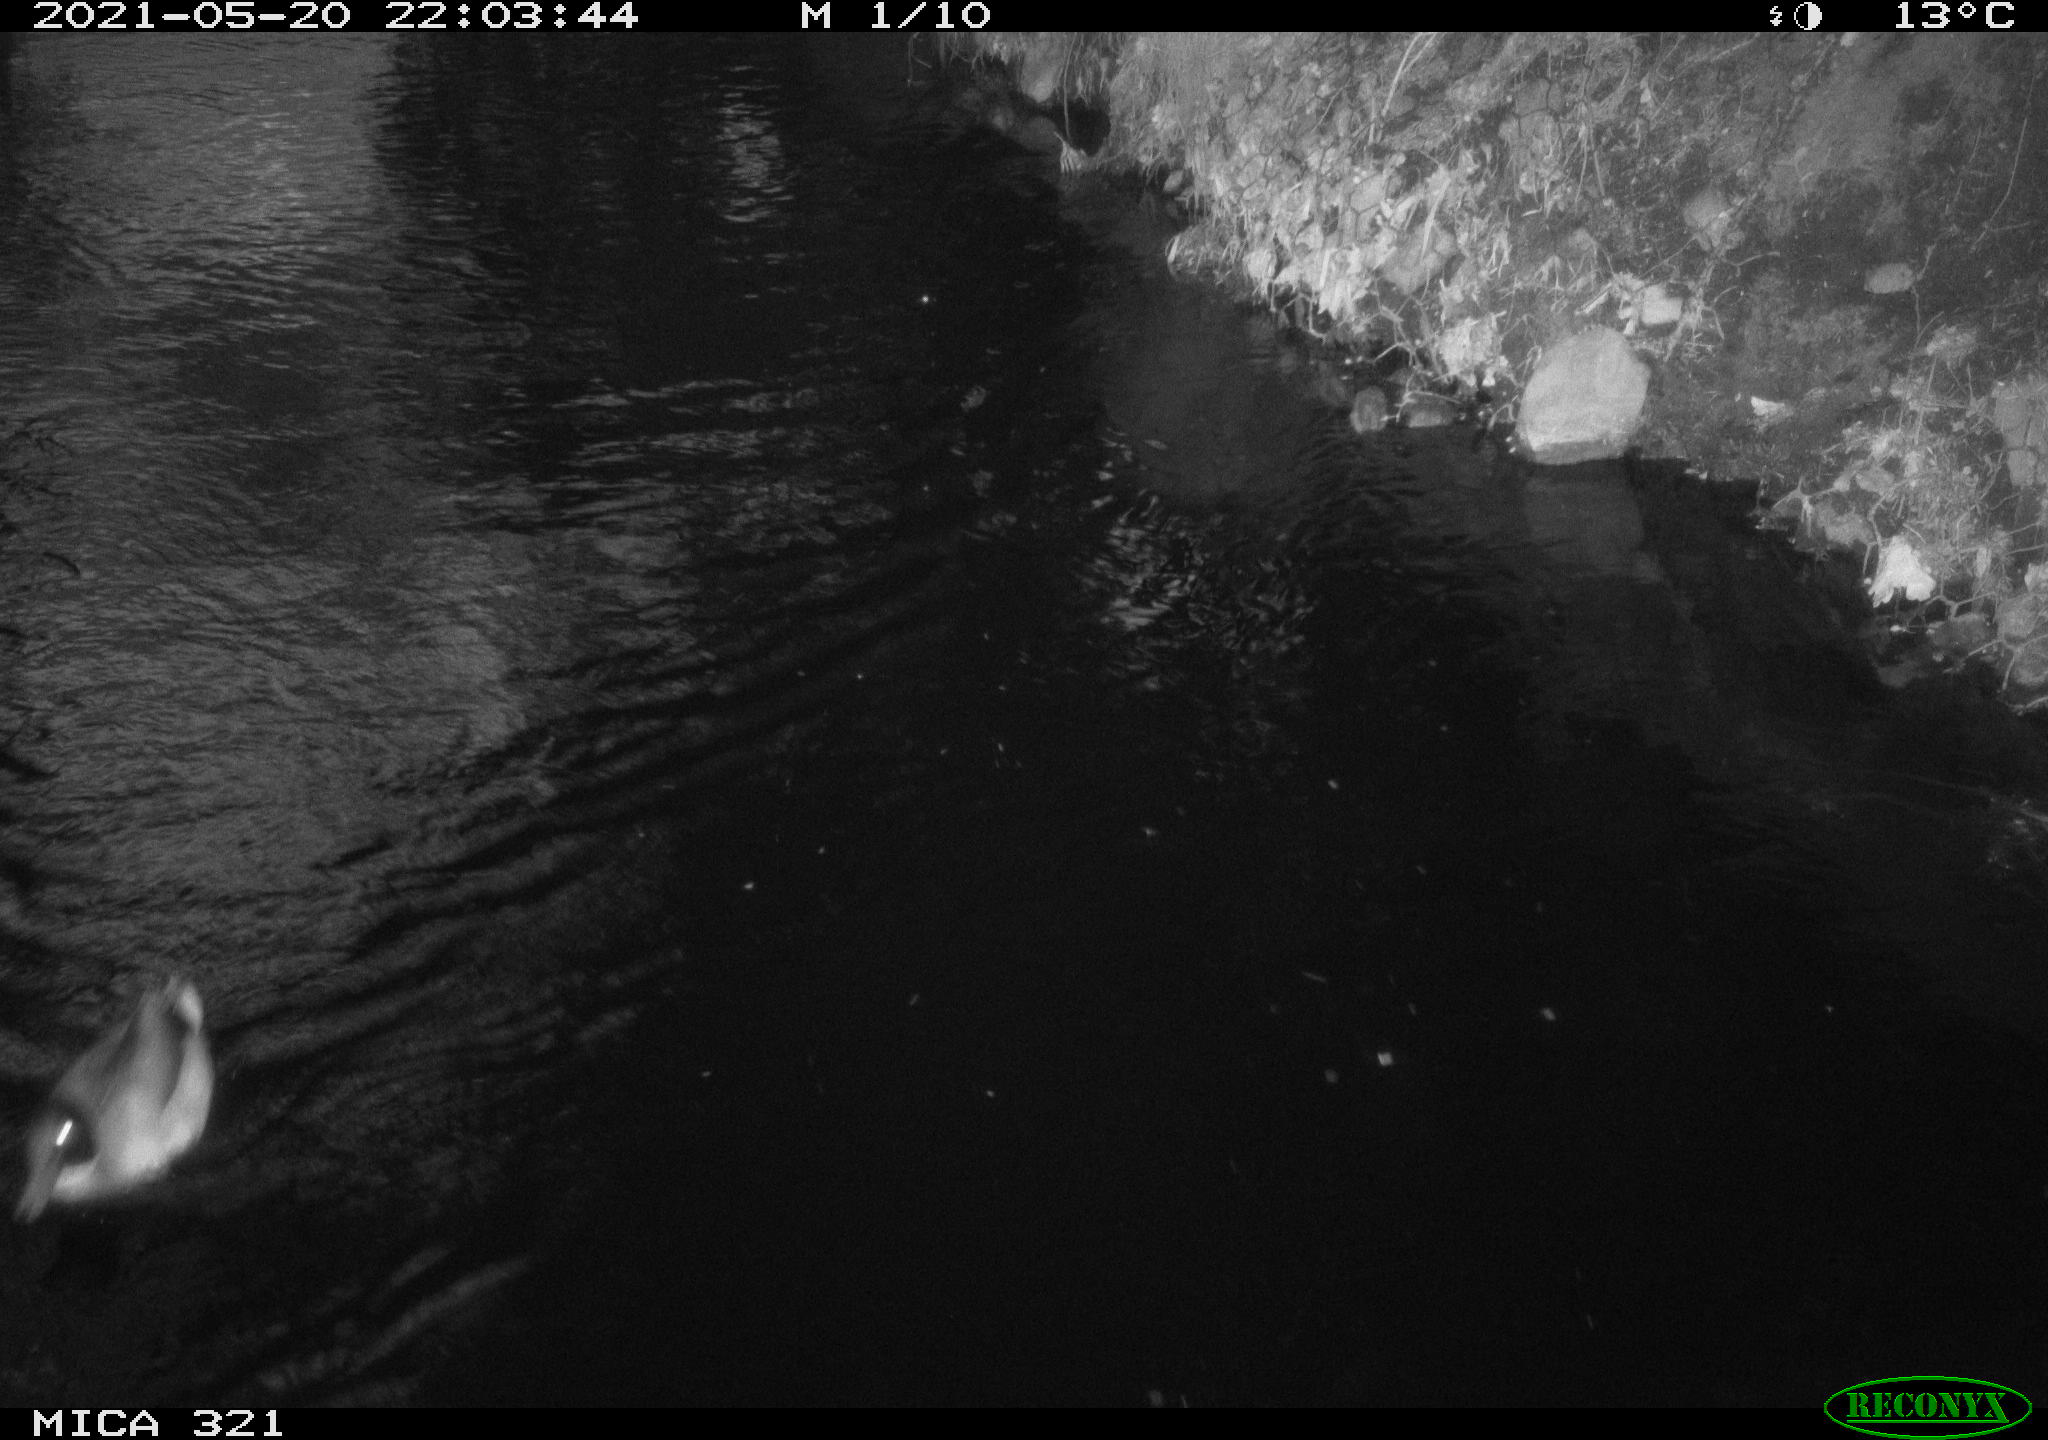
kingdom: Animalia
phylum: Chordata
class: Aves
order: Anseriformes
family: Anatidae
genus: Anas
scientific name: Anas platyrhynchos
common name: Mallard
